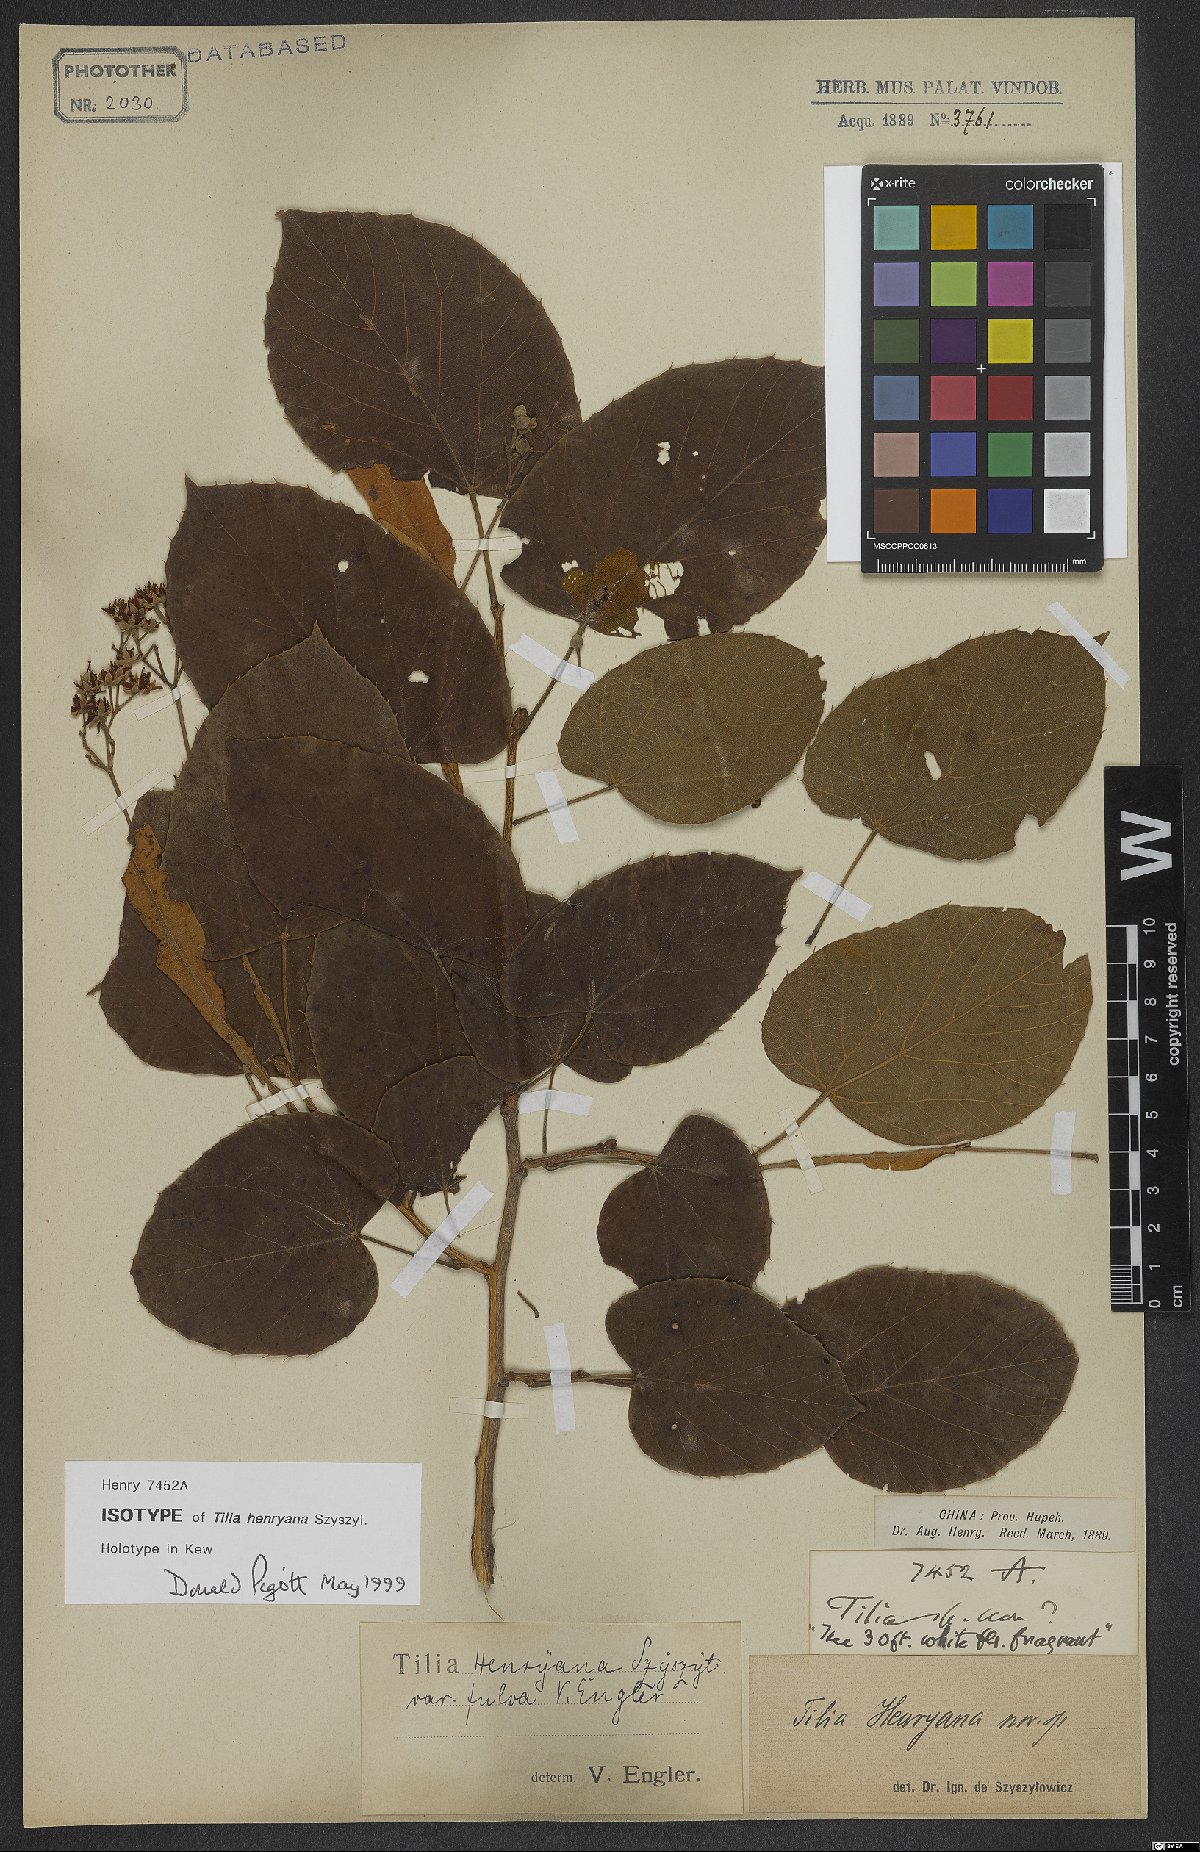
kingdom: Plantae
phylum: Tracheophyta
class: Magnoliopsida
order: Malvales
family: Malvaceae
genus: Tilia
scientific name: Tilia henryana
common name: Henry's lime
